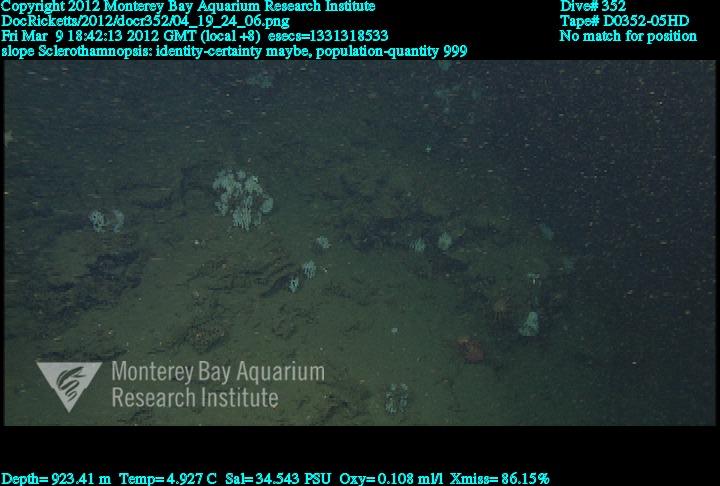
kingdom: Animalia
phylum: Porifera
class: Hexactinellida
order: Sceptrulophora
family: Tretodictyidae
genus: Sclerothamnopsis
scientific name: Sclerothamnopsis
